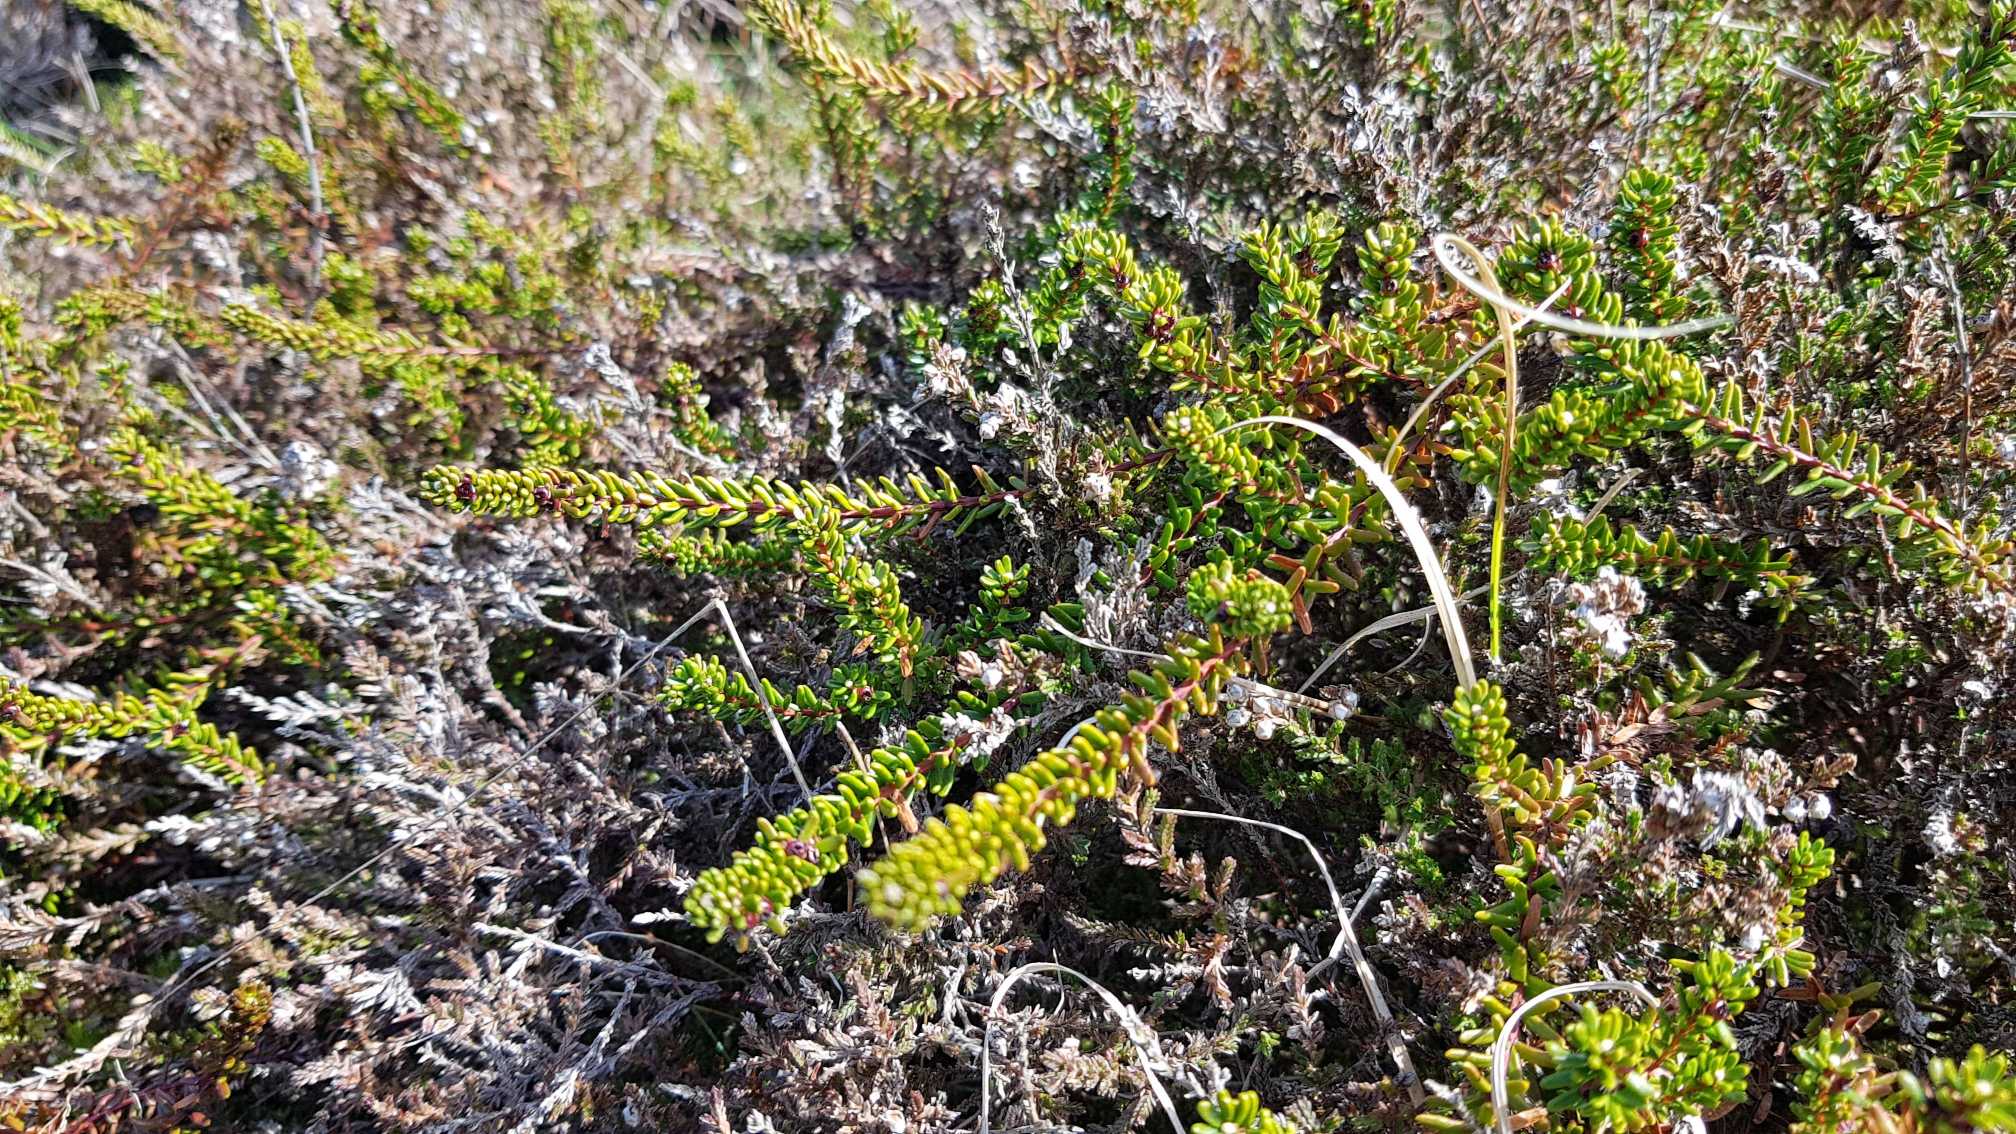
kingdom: Plantae
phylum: Tracheophyta
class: Magnoliopsida
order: Ericales
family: Ericaceae
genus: Empetrum
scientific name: Empetrum nigrum
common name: Revling
